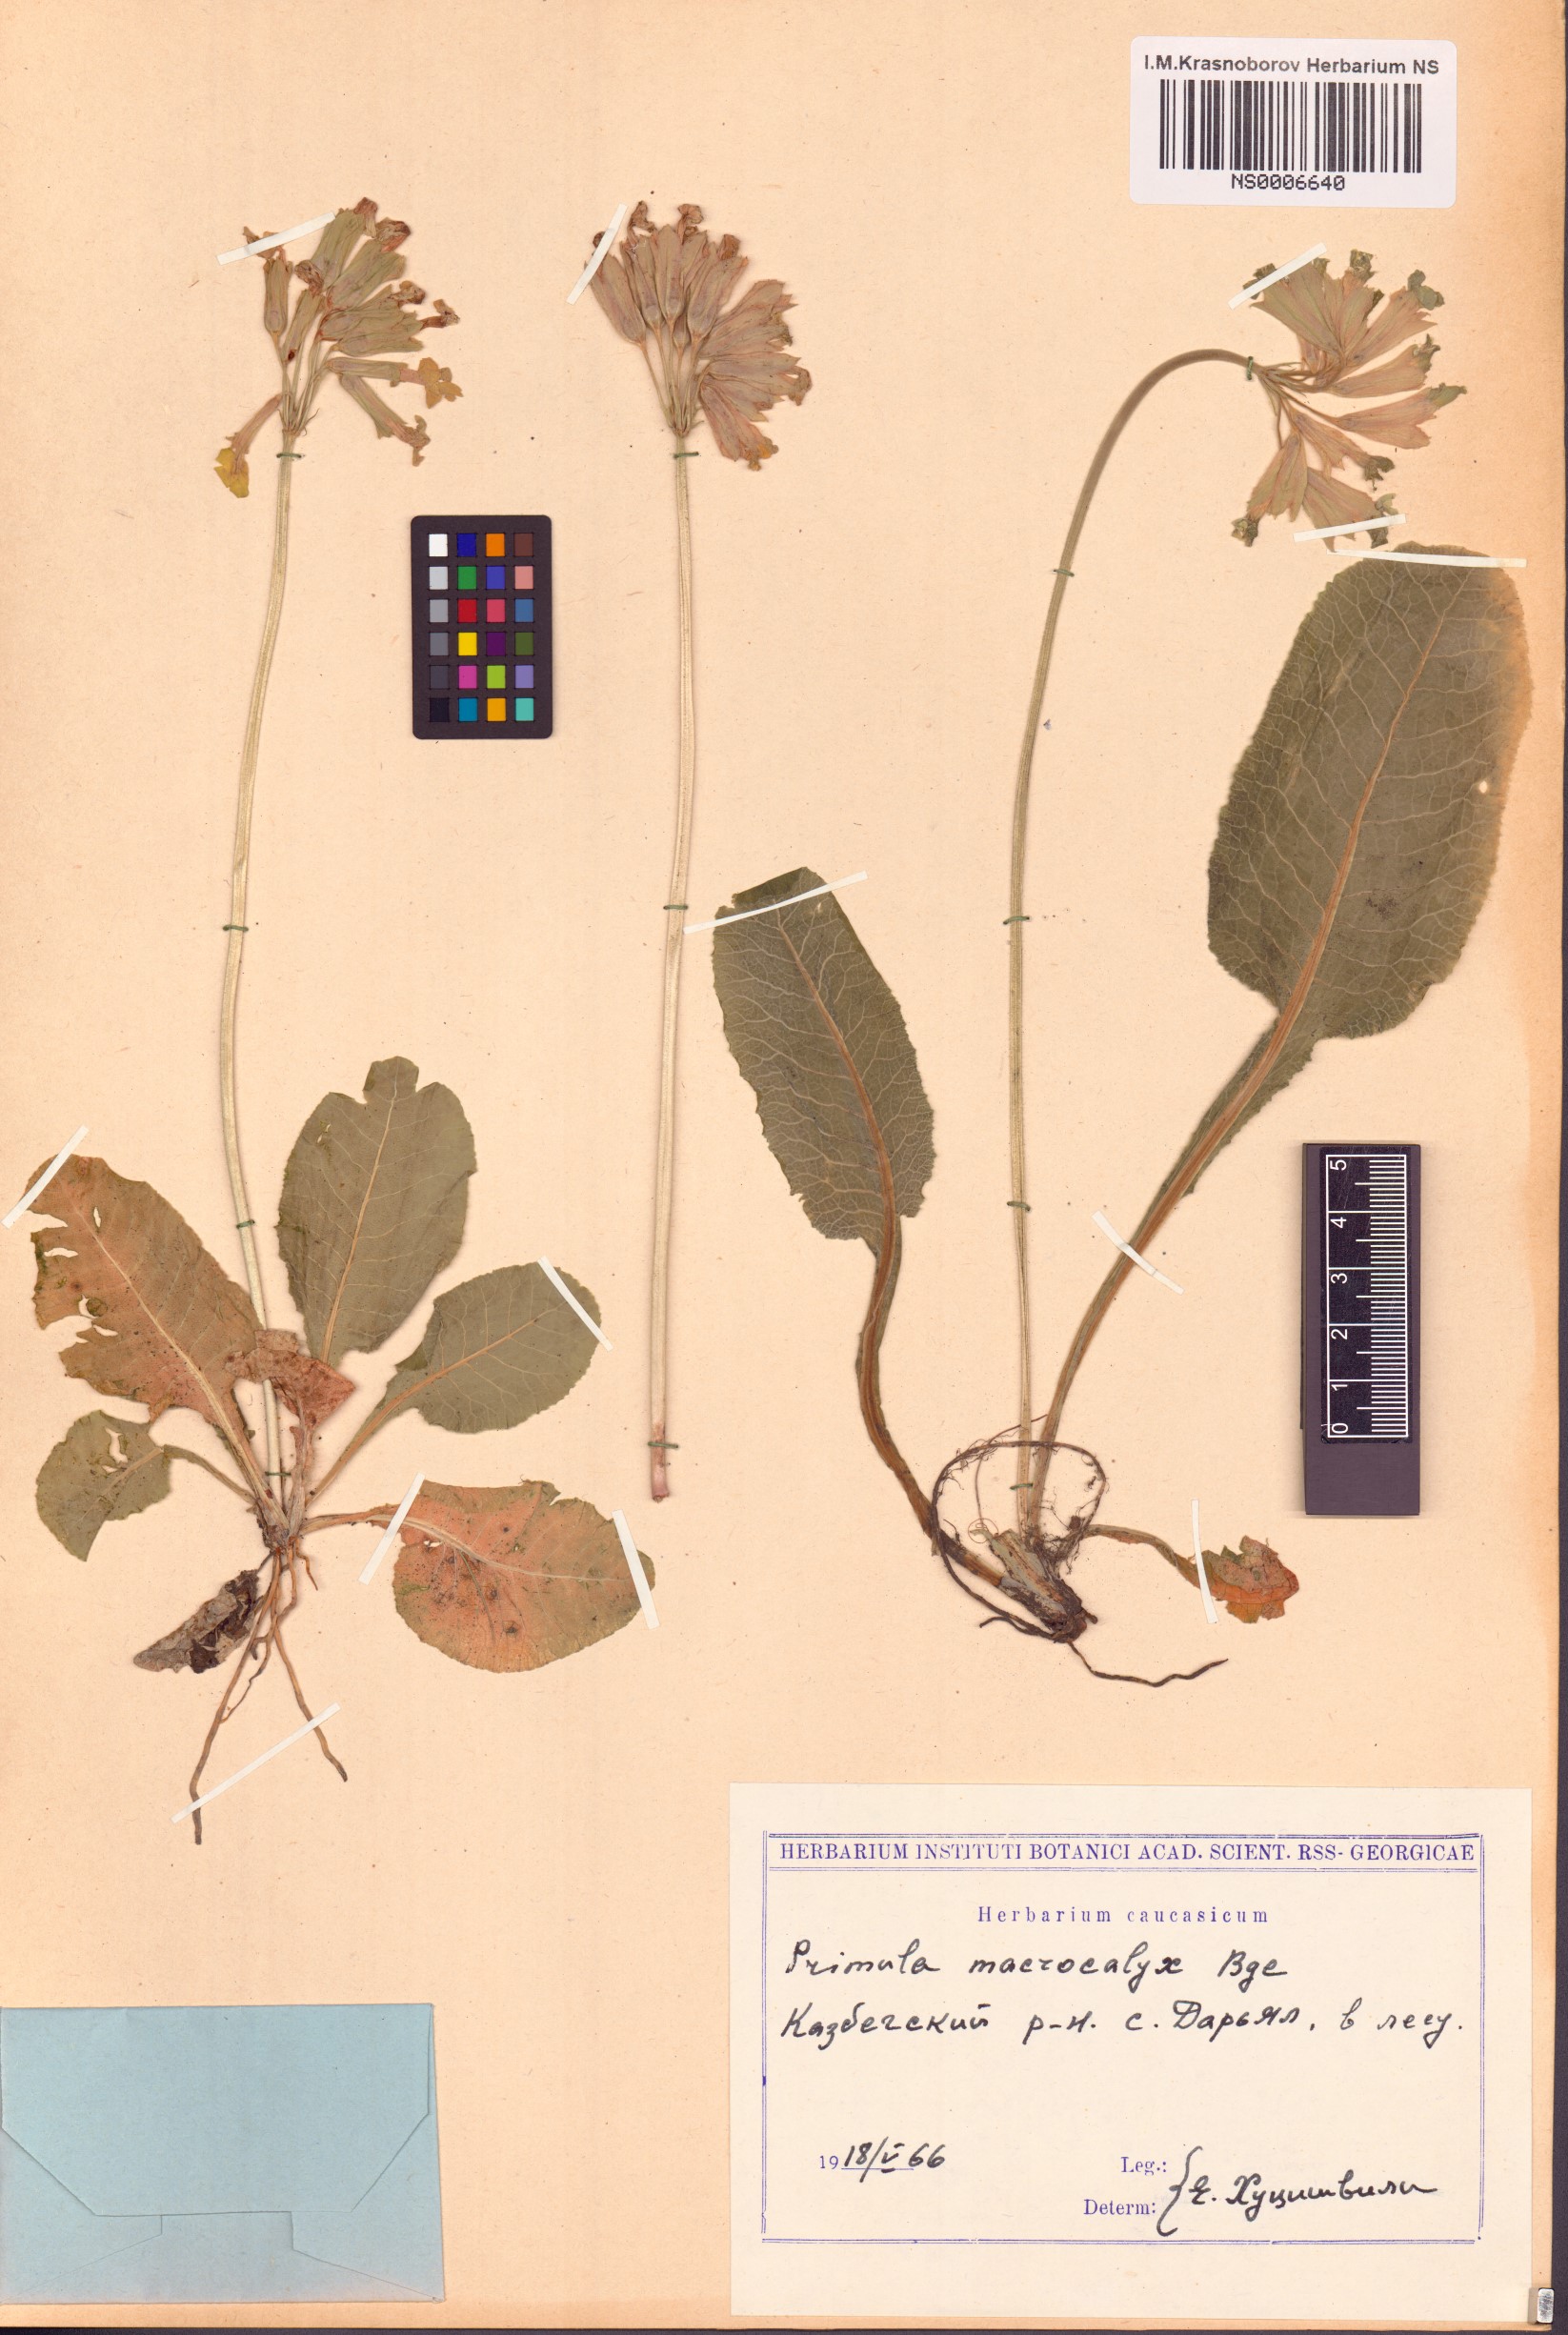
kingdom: Plantae
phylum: Tracheophyta
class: Magnoliopsida
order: Ericales
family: Primulaceae
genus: Primula
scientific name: Primula veris
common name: Cowslip
